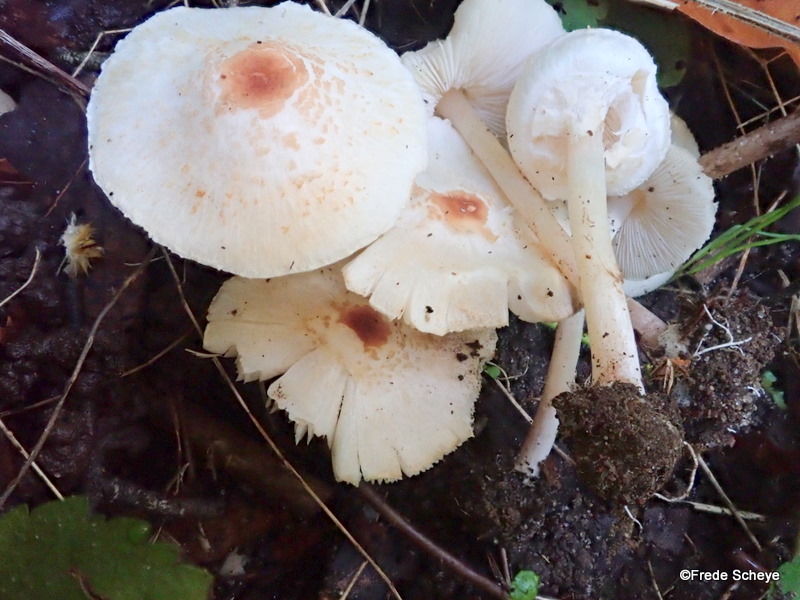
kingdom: Fungi
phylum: Basidiomycota
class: Agaricomycetes
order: Agaricales
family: Agaricaceae
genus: Lepiota
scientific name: Lepiota cristata
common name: stinkende parasolhat
